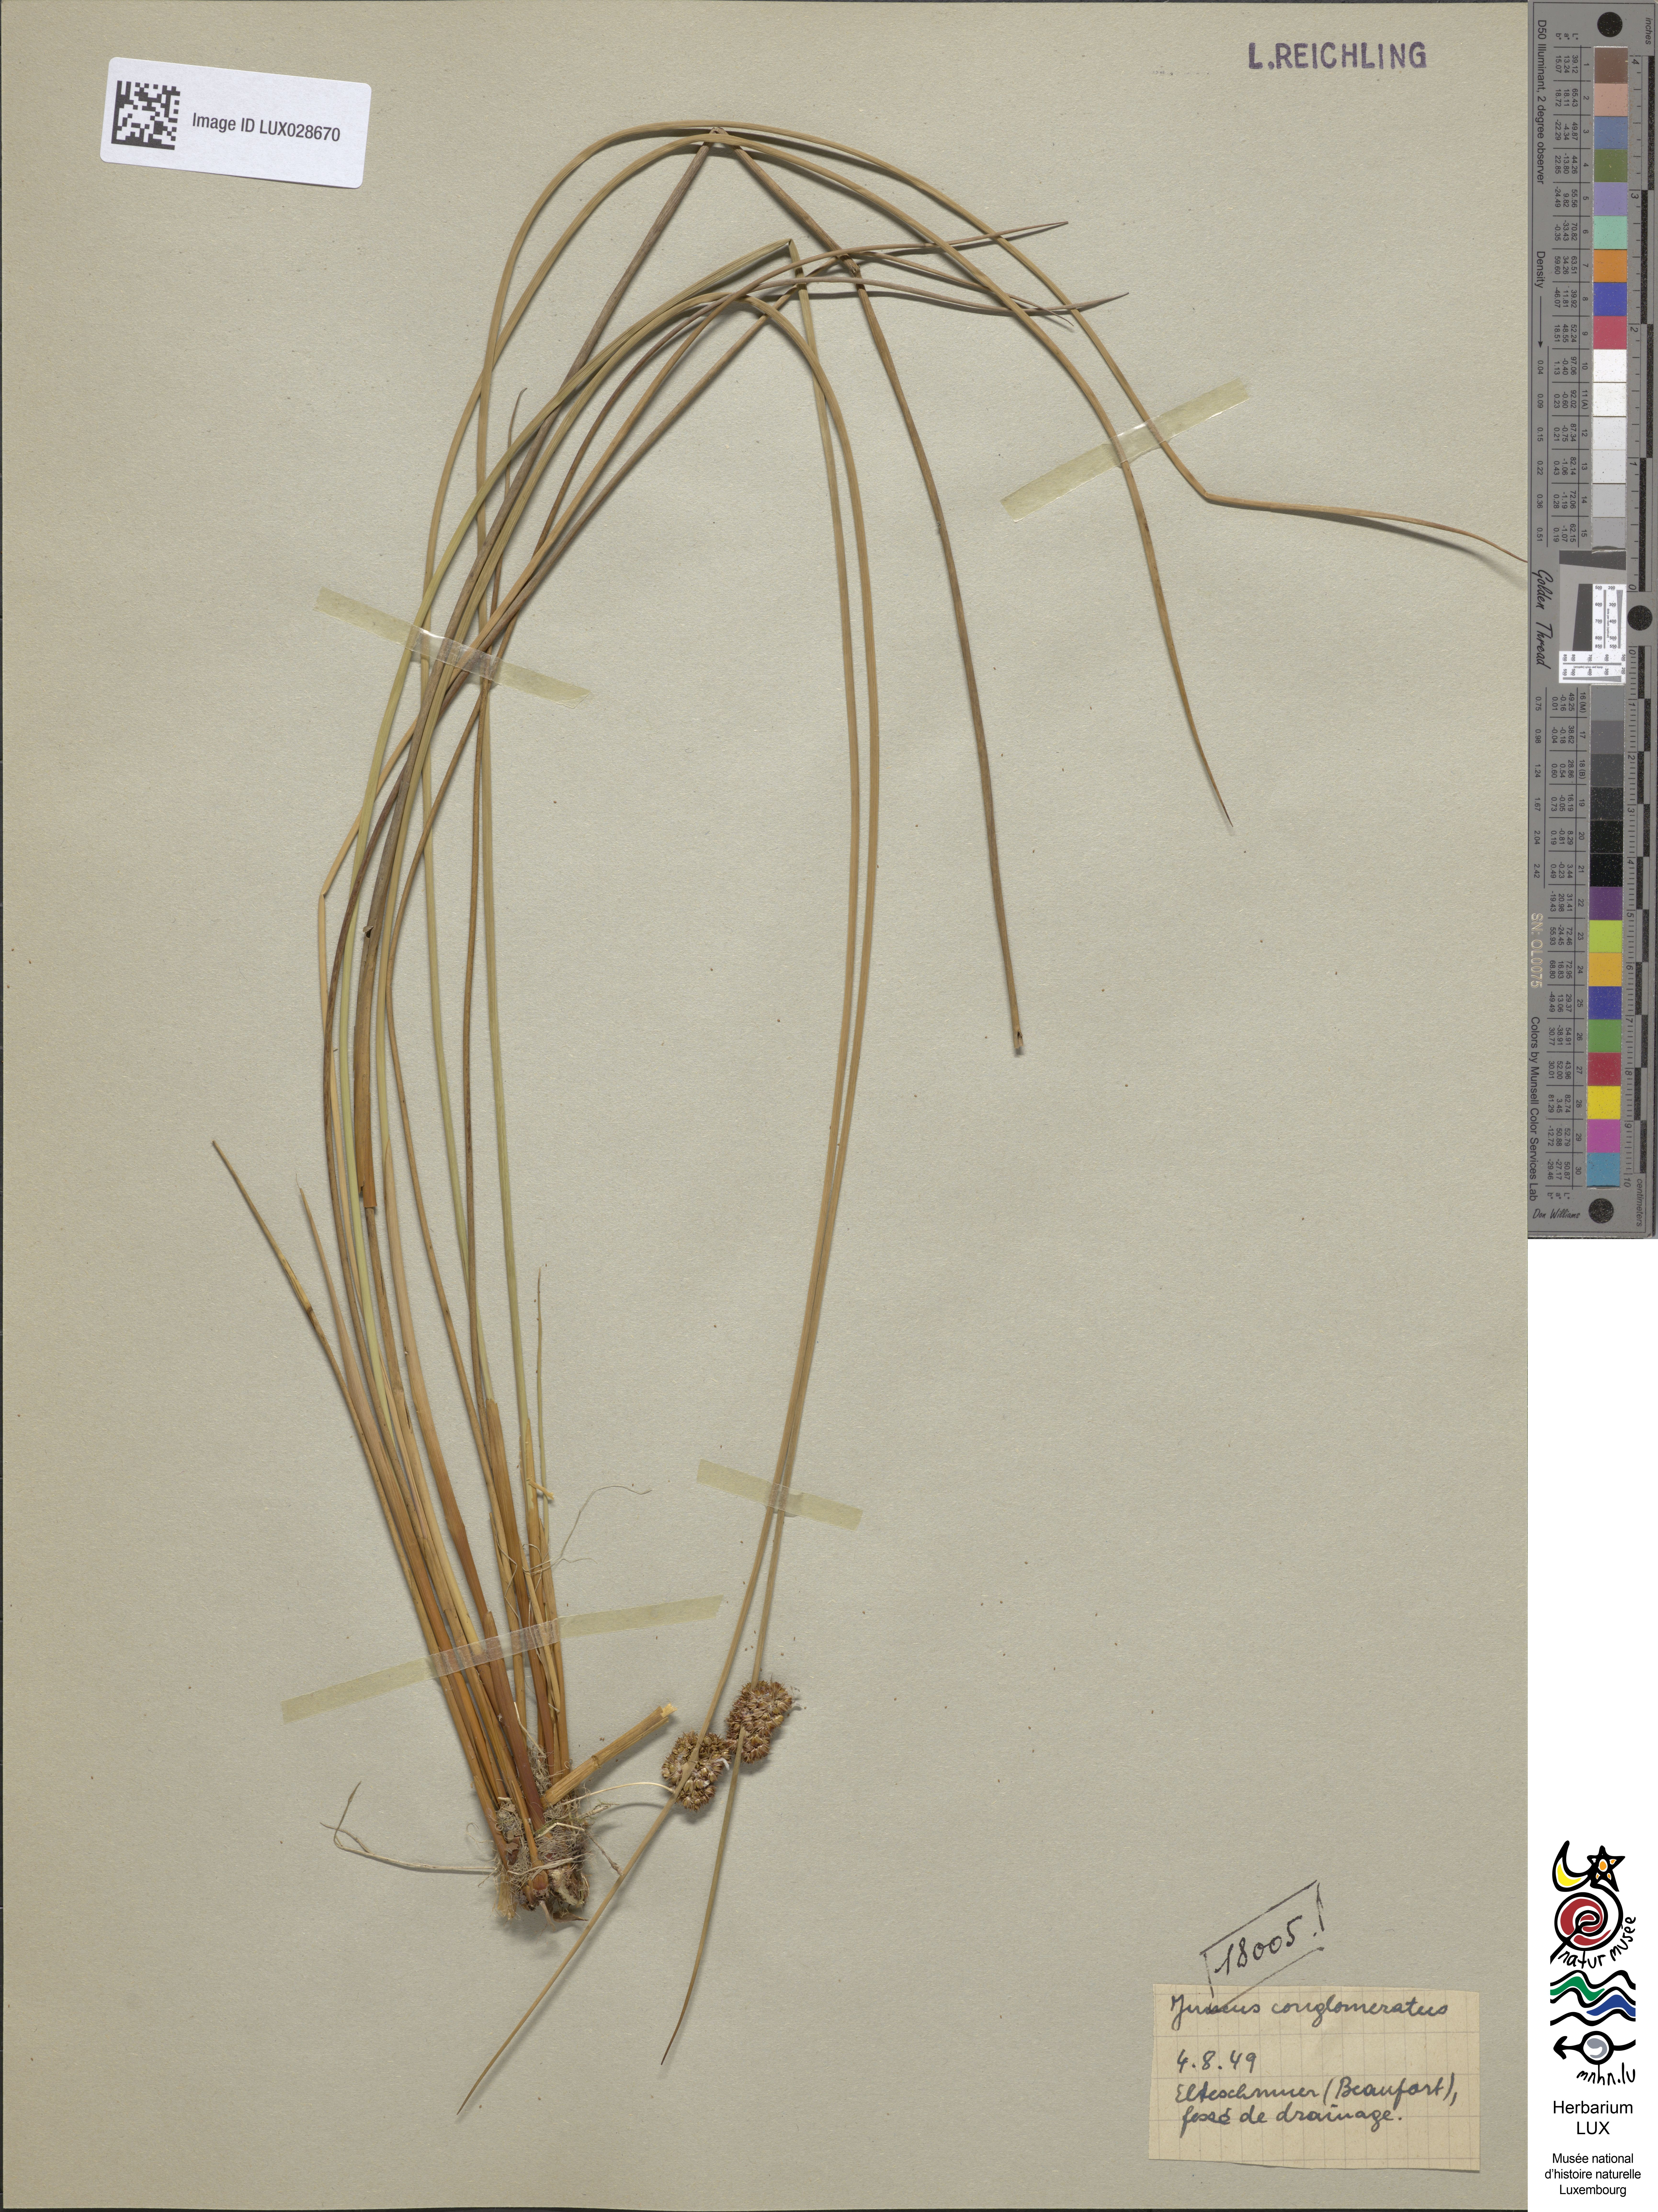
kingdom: Plantae
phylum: Tracheophyta
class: Liliopsida
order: Poales
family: Juncaceae
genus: Juncus
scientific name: Juncus conglomeratus
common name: Compact rush
